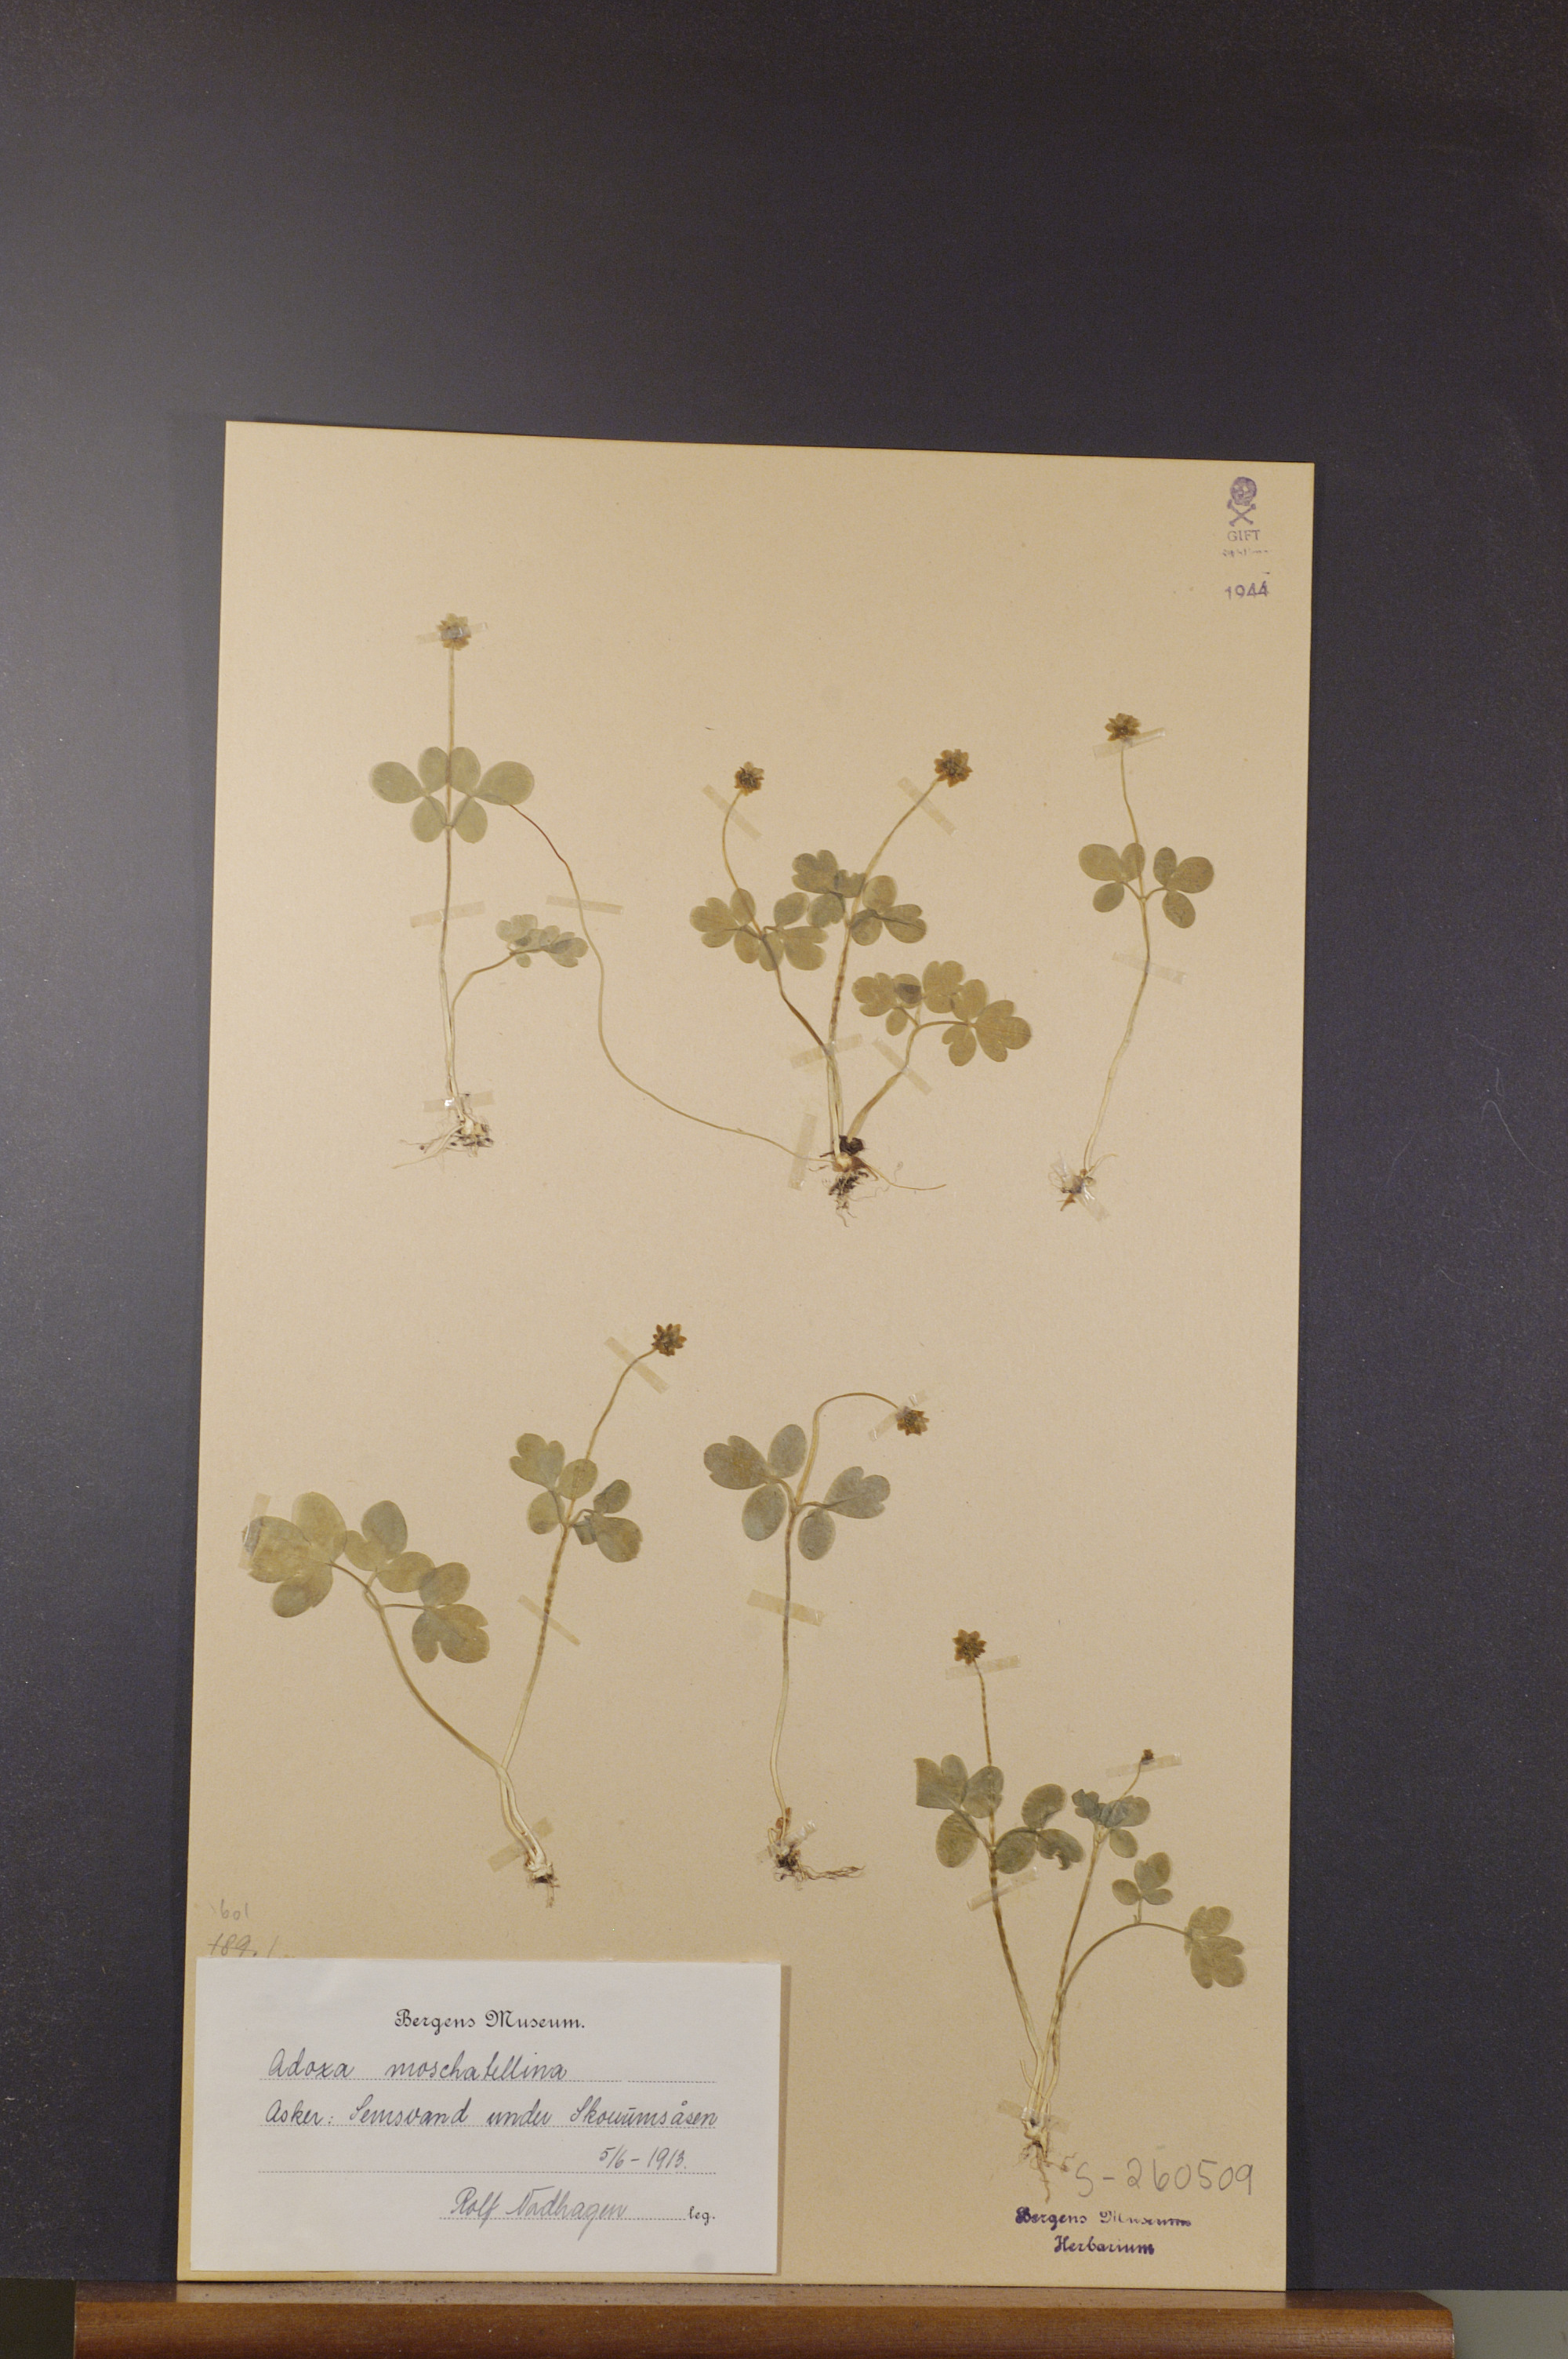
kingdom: Plantae
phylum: Tracheophyta
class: Magnoliopsida
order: Dipsacales
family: Viburnaceae
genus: Adoxa
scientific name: Adoxa moschatellina
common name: Moschatel
